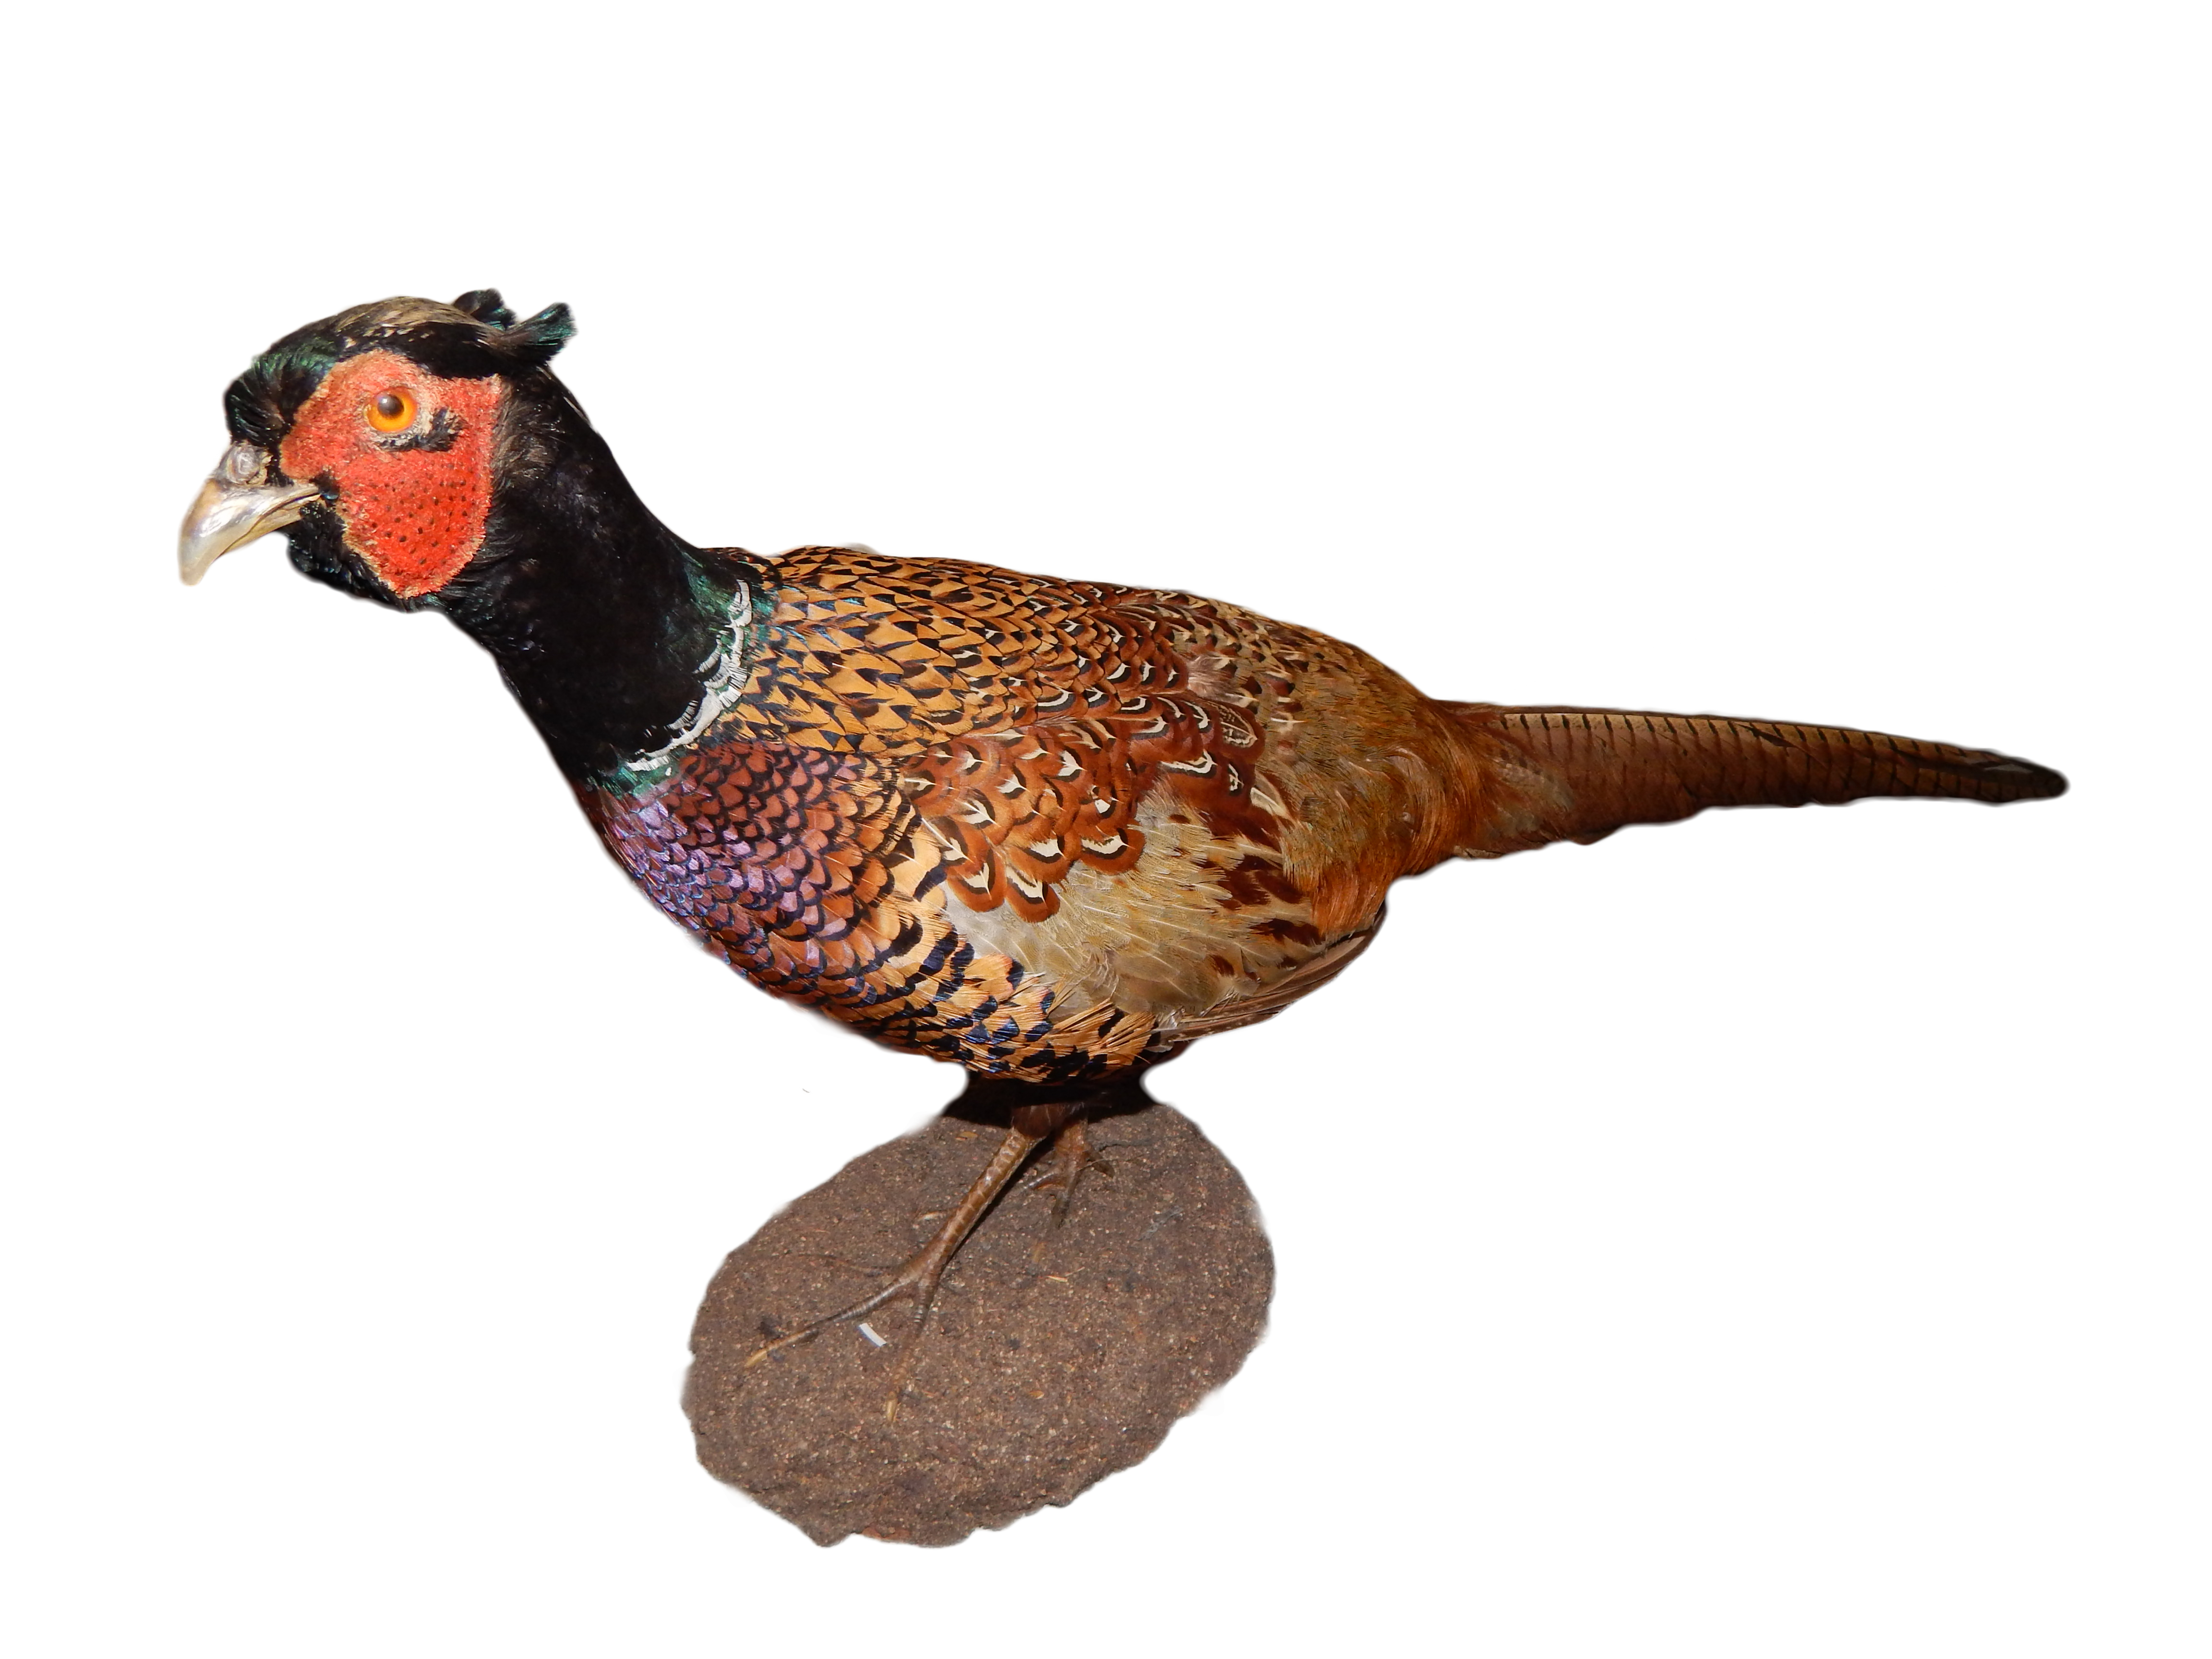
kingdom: Animalia
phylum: Chordata
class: Aves
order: Galliformes
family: Phasianidae
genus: Phasianus
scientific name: Phasianus colchicus
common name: Common pheasant
